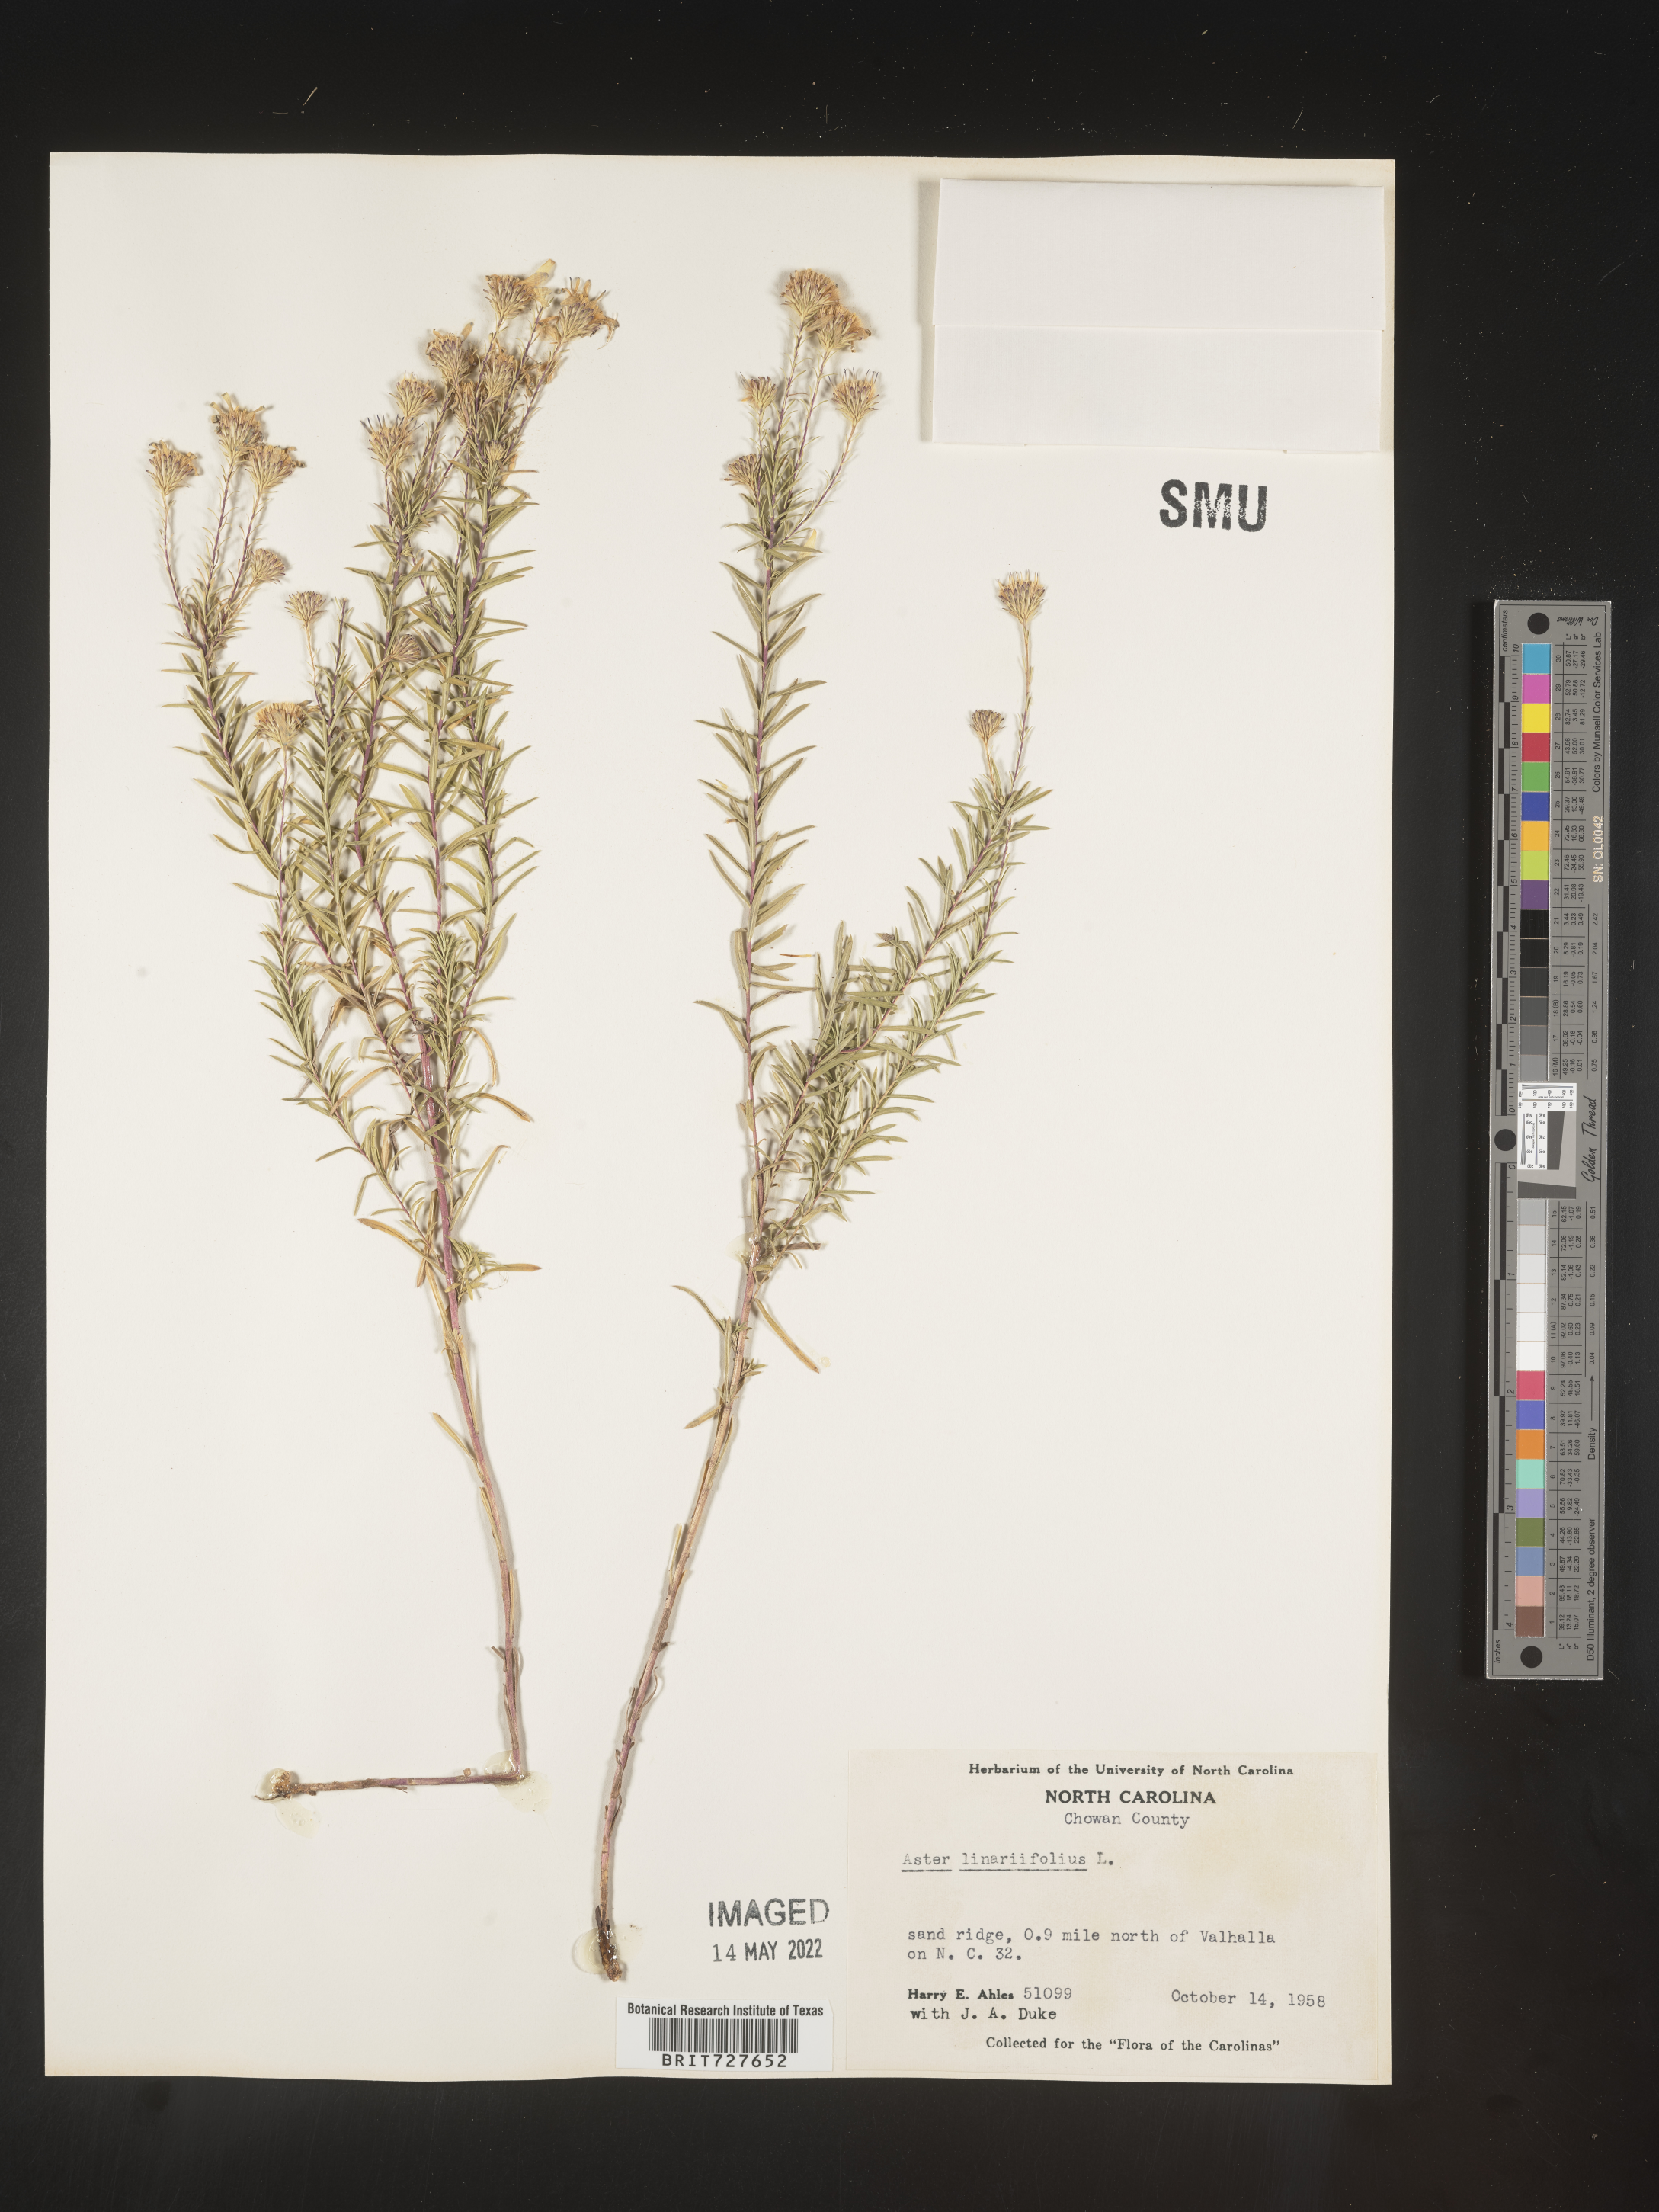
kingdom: Plantae
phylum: Tracheophyta
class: Magnoliopsida
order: Asterales
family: Asteraceae
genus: Ionactis
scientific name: Ionactis linariifolia
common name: Flax-leaf aster
